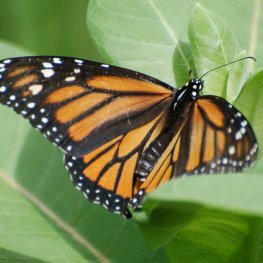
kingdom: Animalia
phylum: Arthropoda
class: Insecta
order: Lepidoptera
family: Nymphalidae
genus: Danaus
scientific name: Danaus plexippus
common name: Monarch
